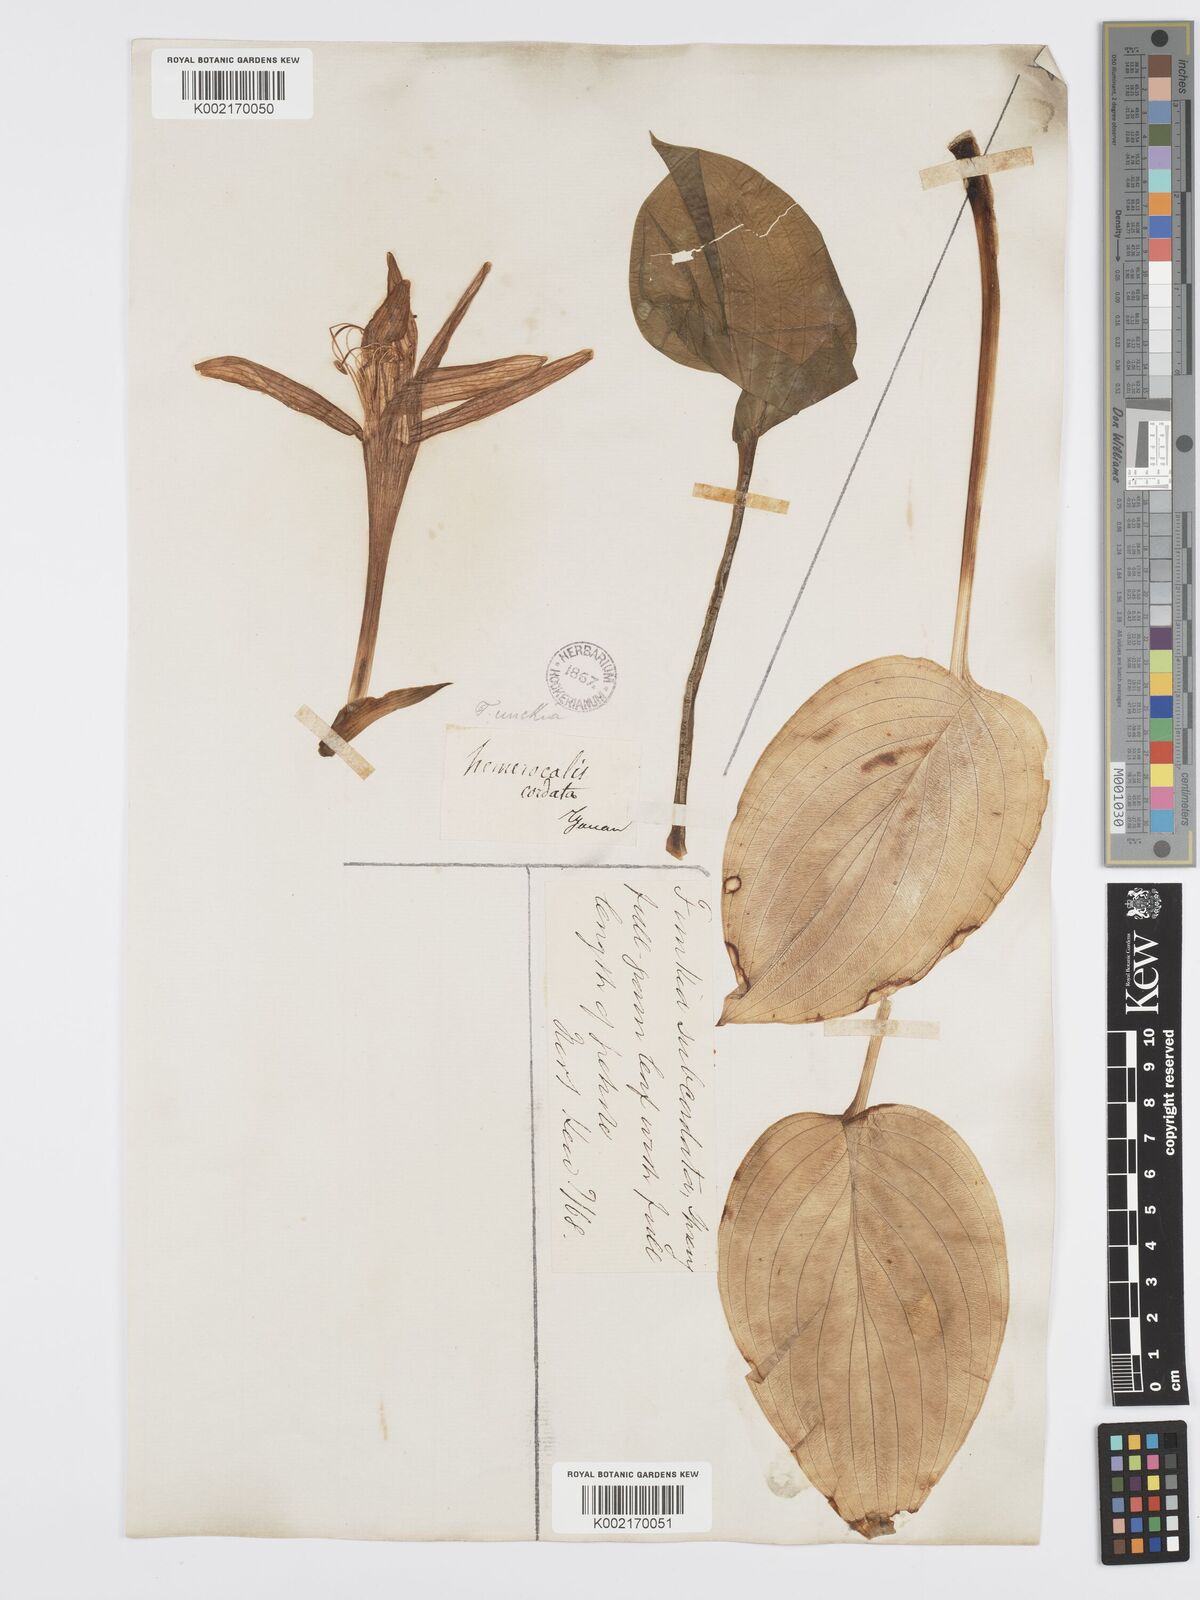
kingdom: Plantae
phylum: Tracheophyta
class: Liliopsida
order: Asparagales
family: Asparagaceae
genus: Hosta
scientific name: Hosta plantaginea
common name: August-lily
